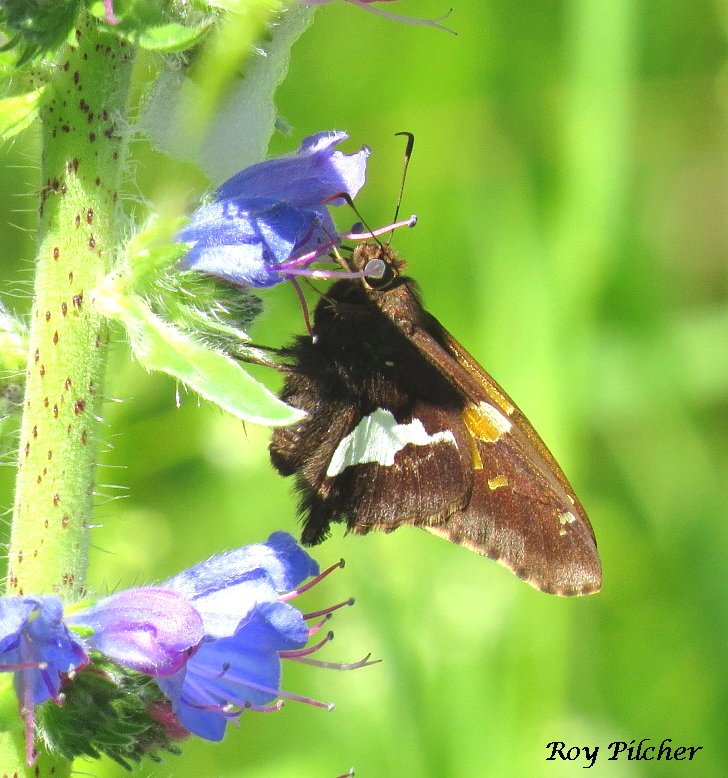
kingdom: Animalia
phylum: Arthropoda
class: Insecta
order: Lepidoptera
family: Hesperiidae
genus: Epargyreus
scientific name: Epargyreus clarus
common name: Silver-spotted Skipper
